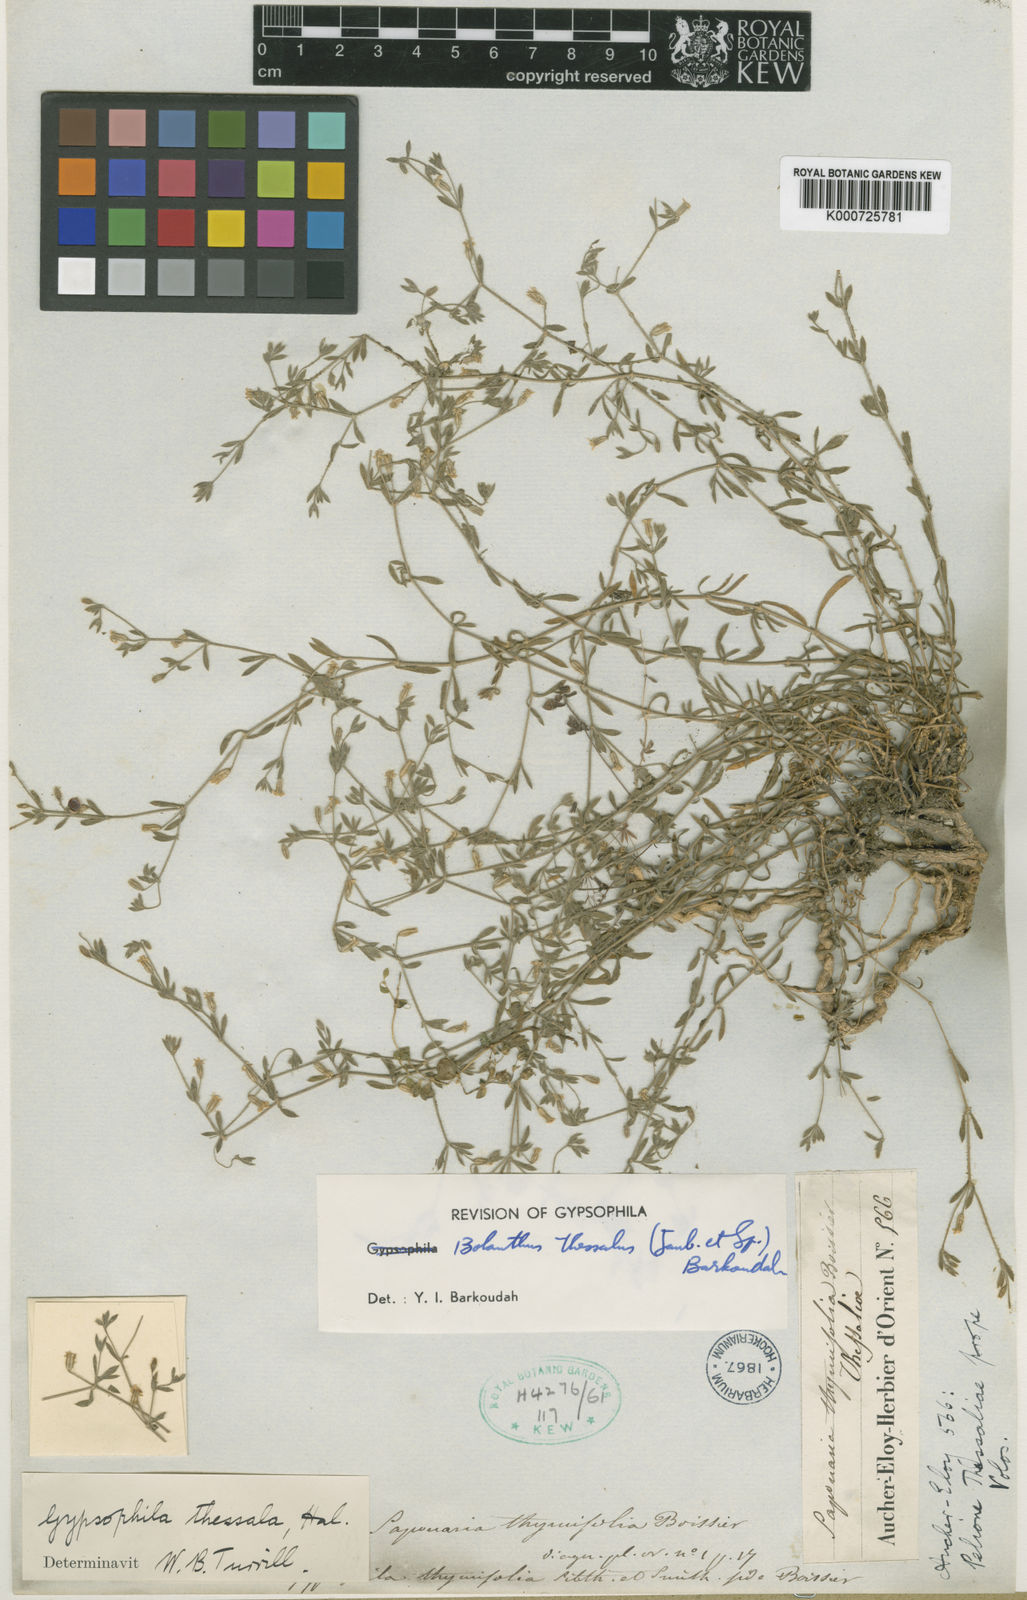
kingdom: Plantae
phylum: Tracheophyta
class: Magnoliopsida
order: Caryophyllales
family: Caryophyllaceae
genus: Graecobolanthus
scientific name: Graecobolanthus thessalus
